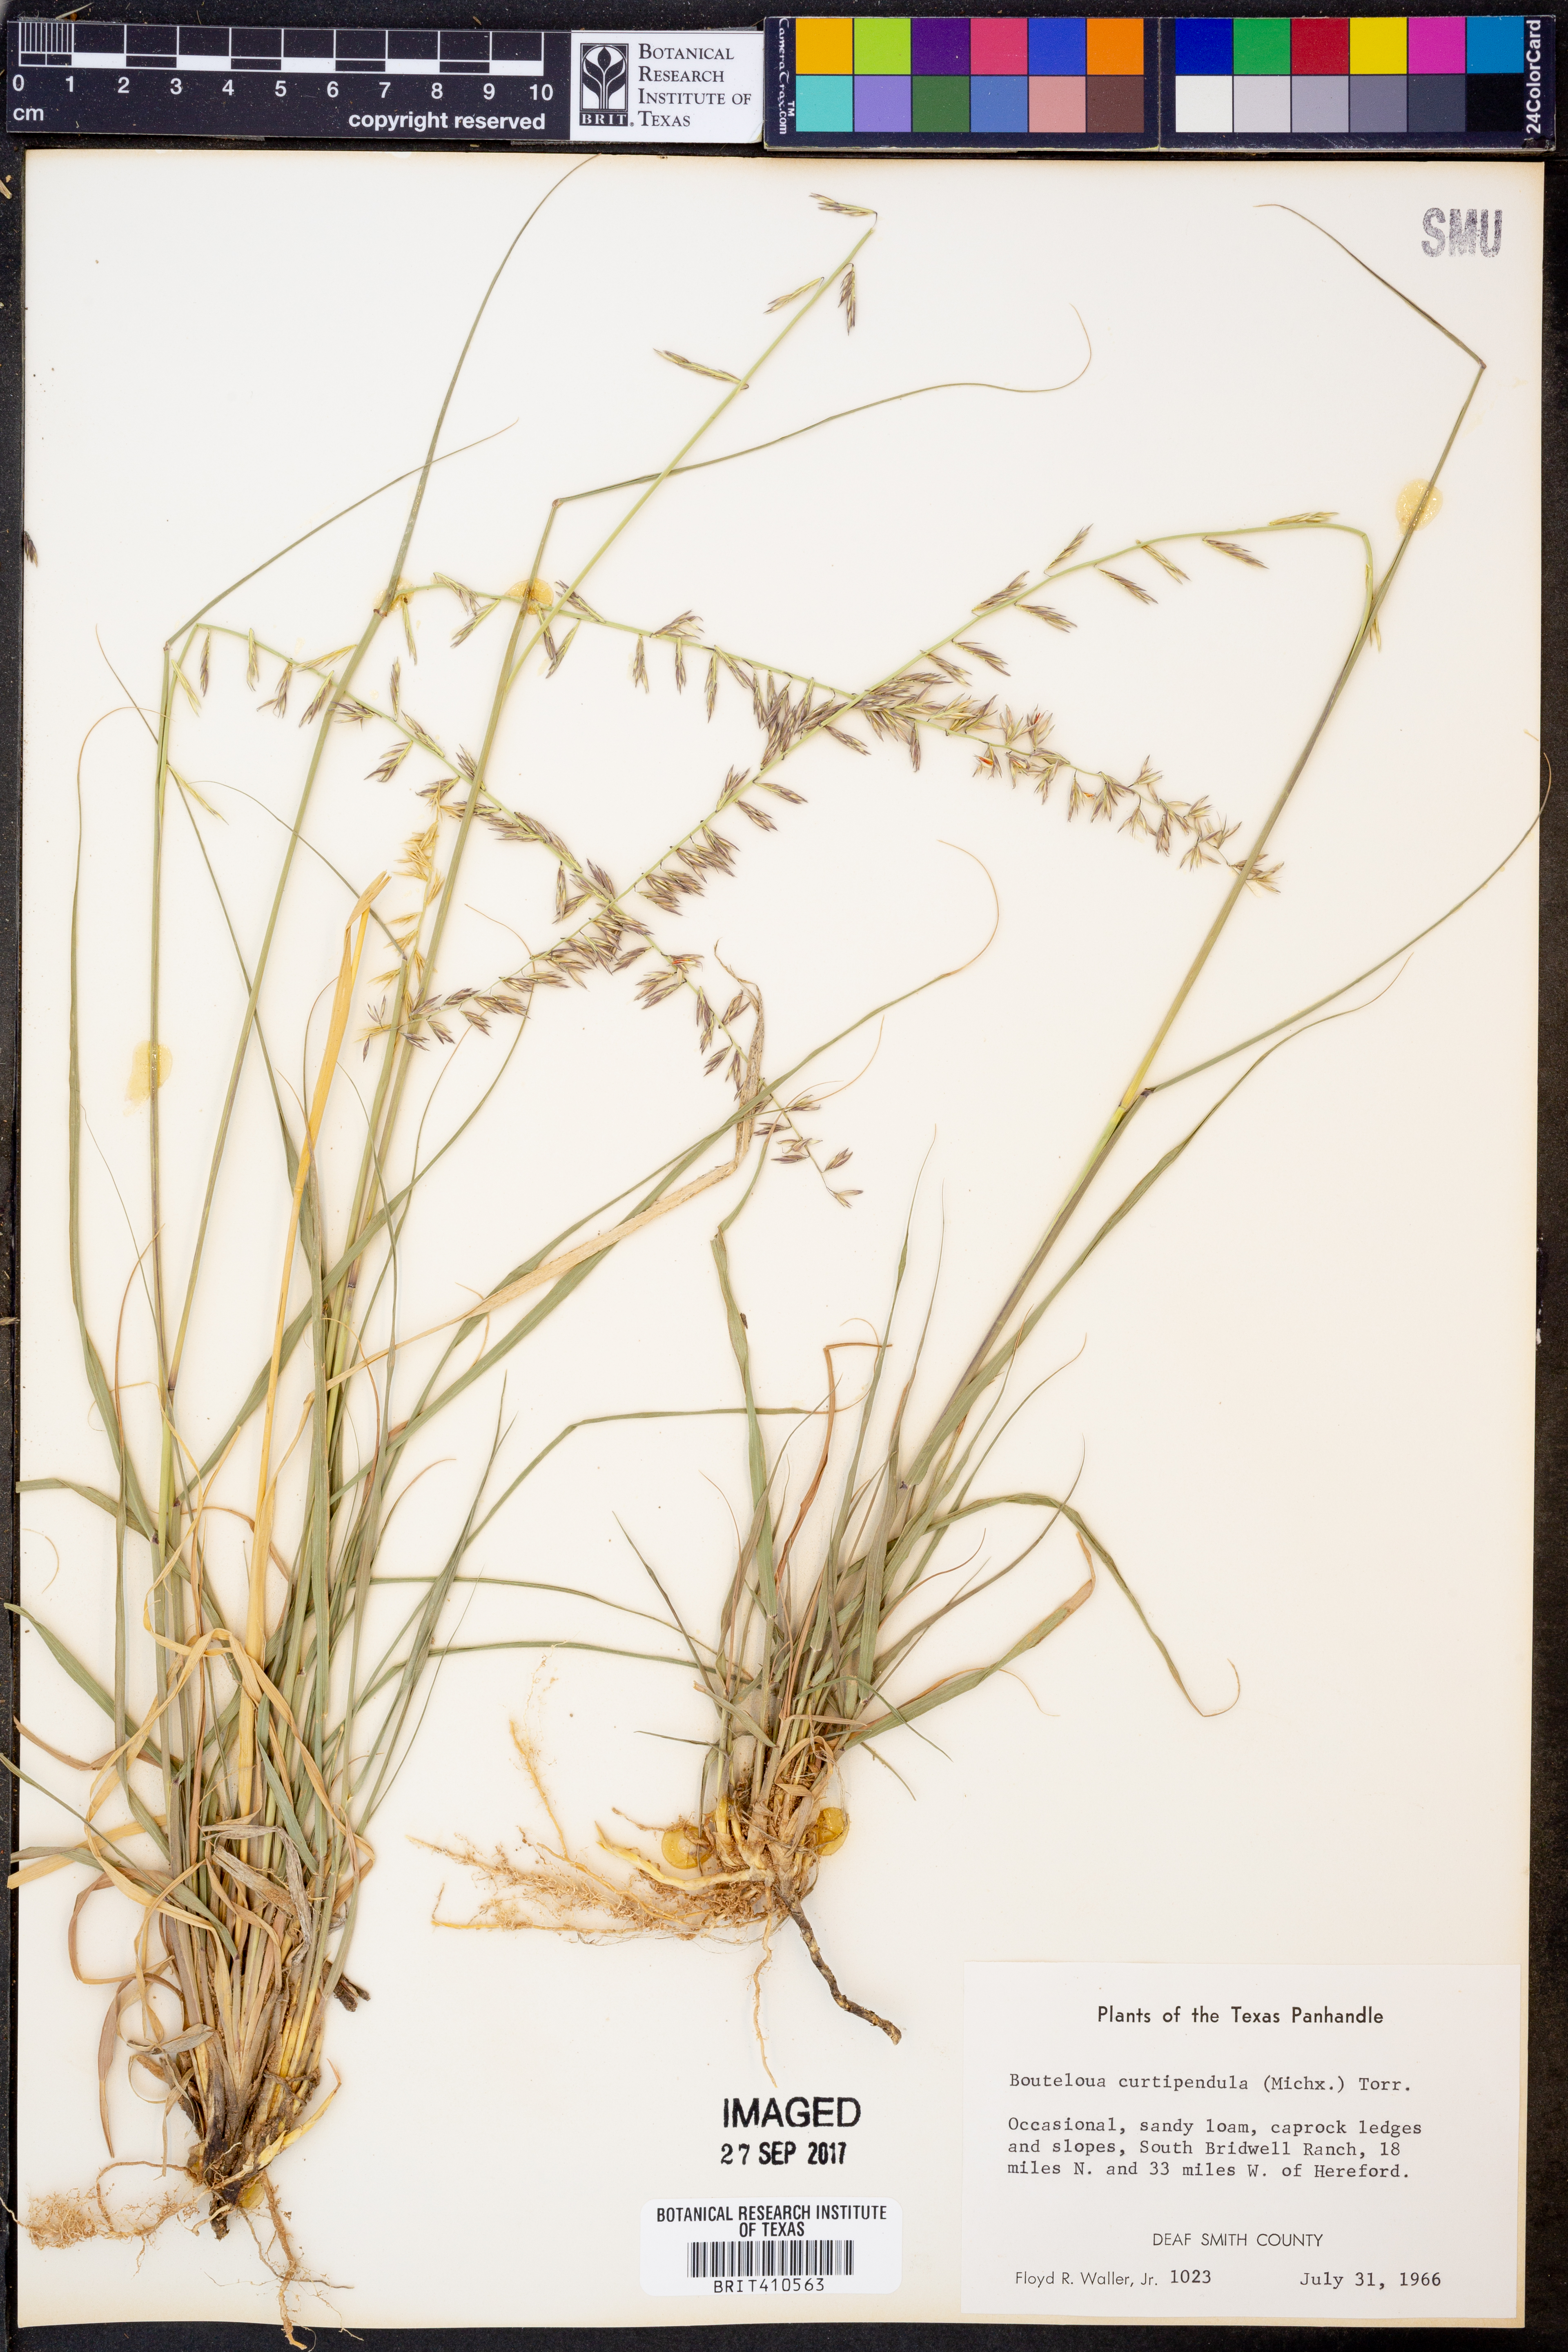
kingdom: Plantae
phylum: Tracheophyta
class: Liliopsida
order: Poales
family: Poaceae
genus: Bouteloua
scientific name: Bouteloua curtipendula
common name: Side-oats grama
